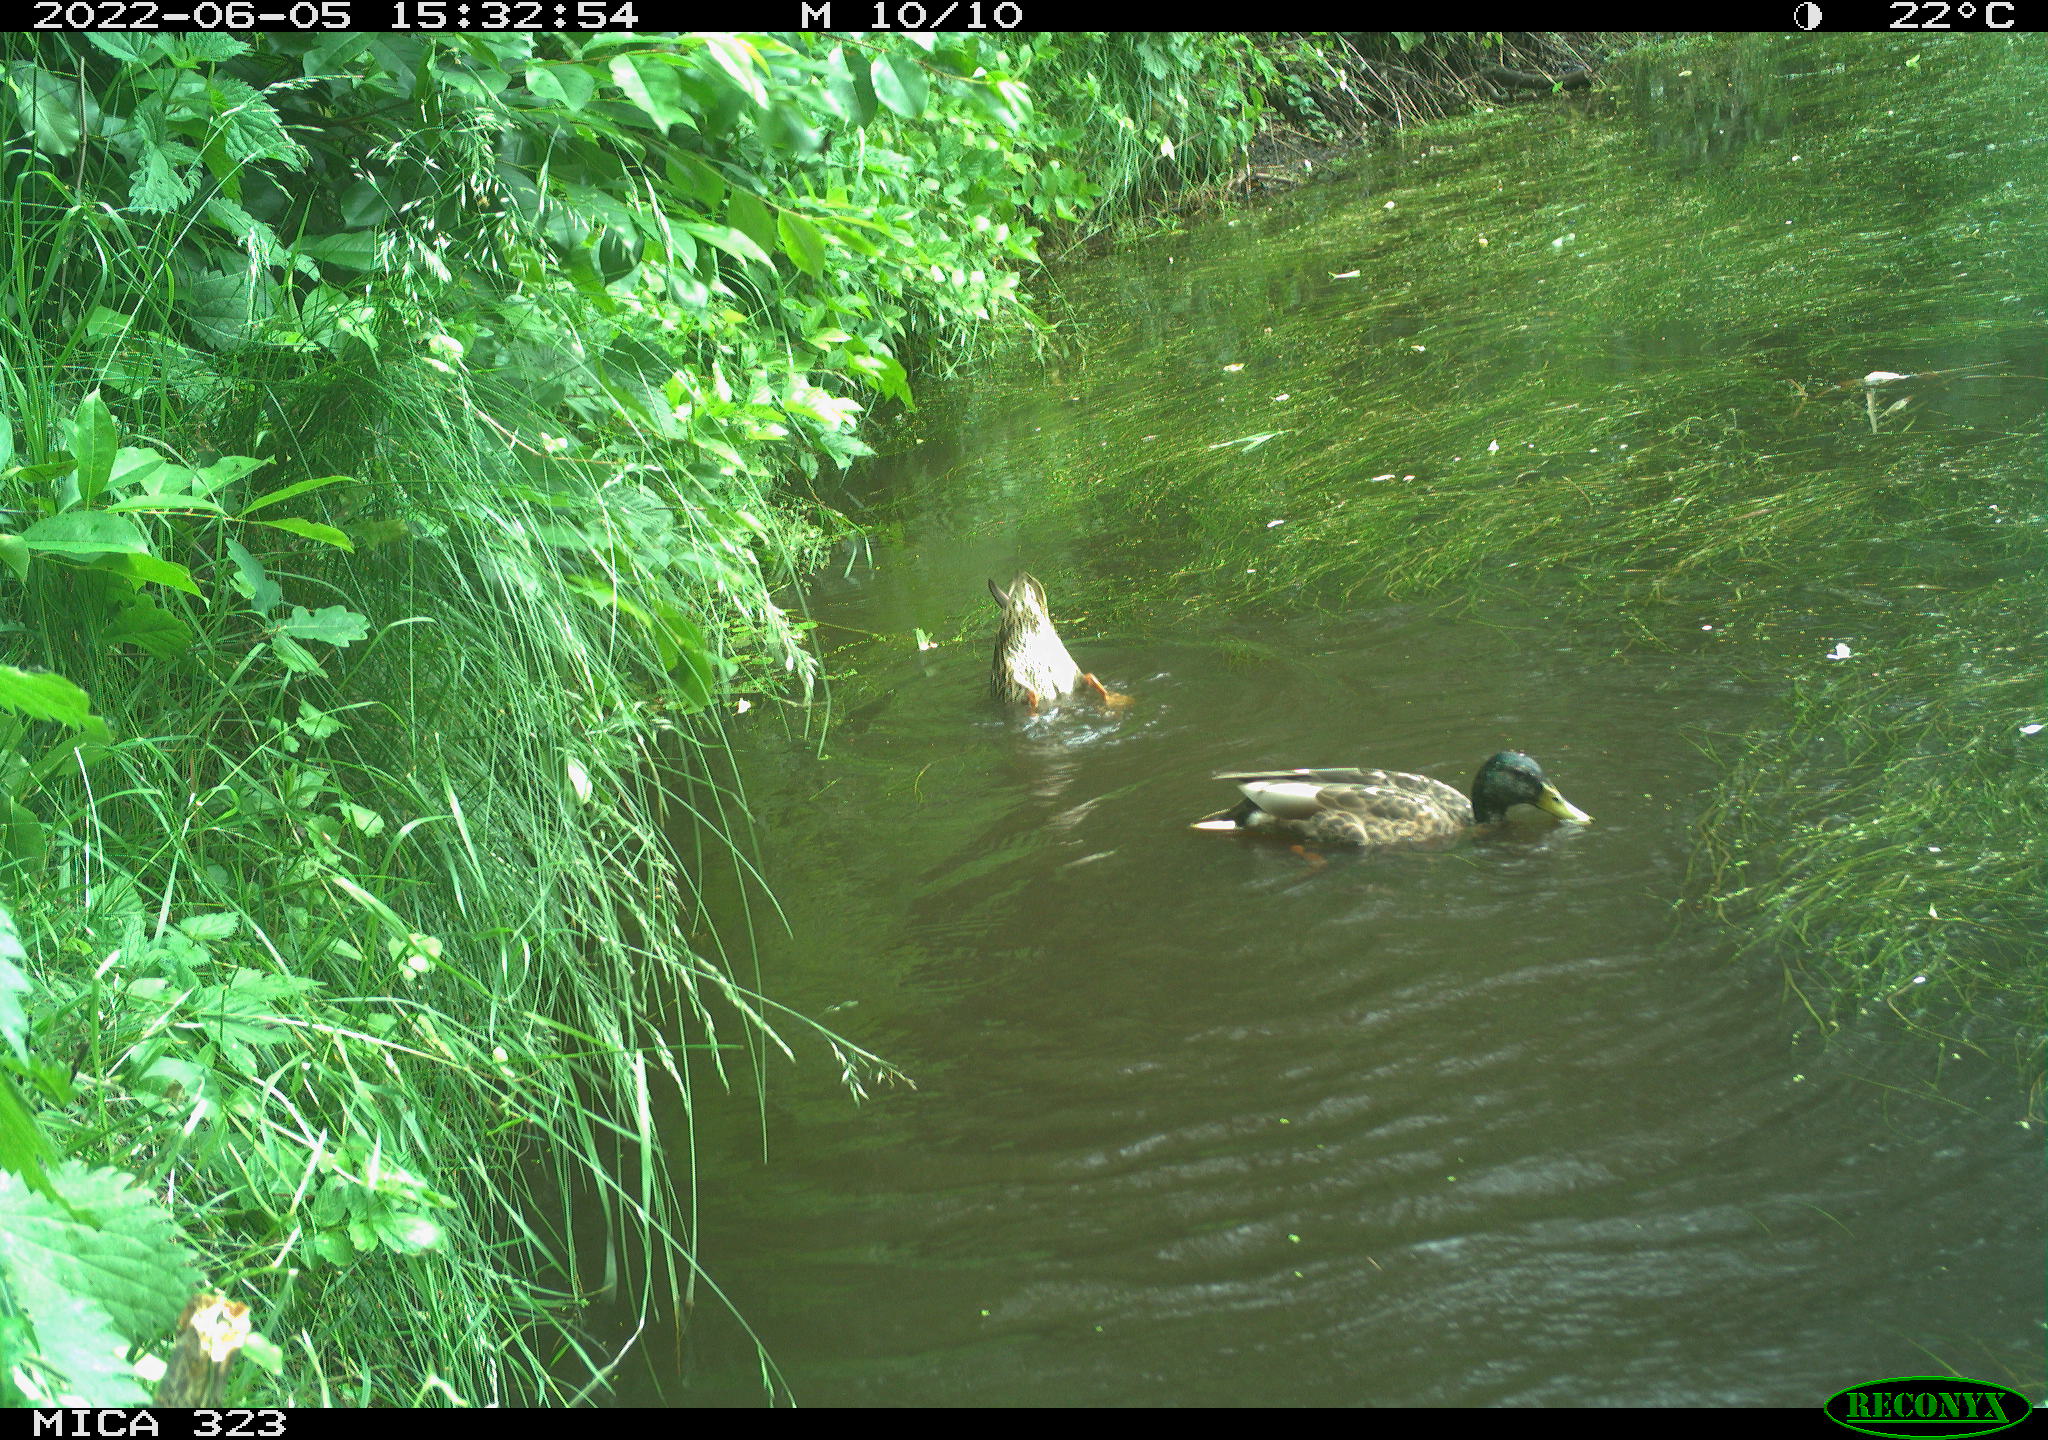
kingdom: Animalia
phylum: Chordata
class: Aves
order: Anseriformes
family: Anatidae
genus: Anas
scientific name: Anas platyrhynchos
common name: Mallard
